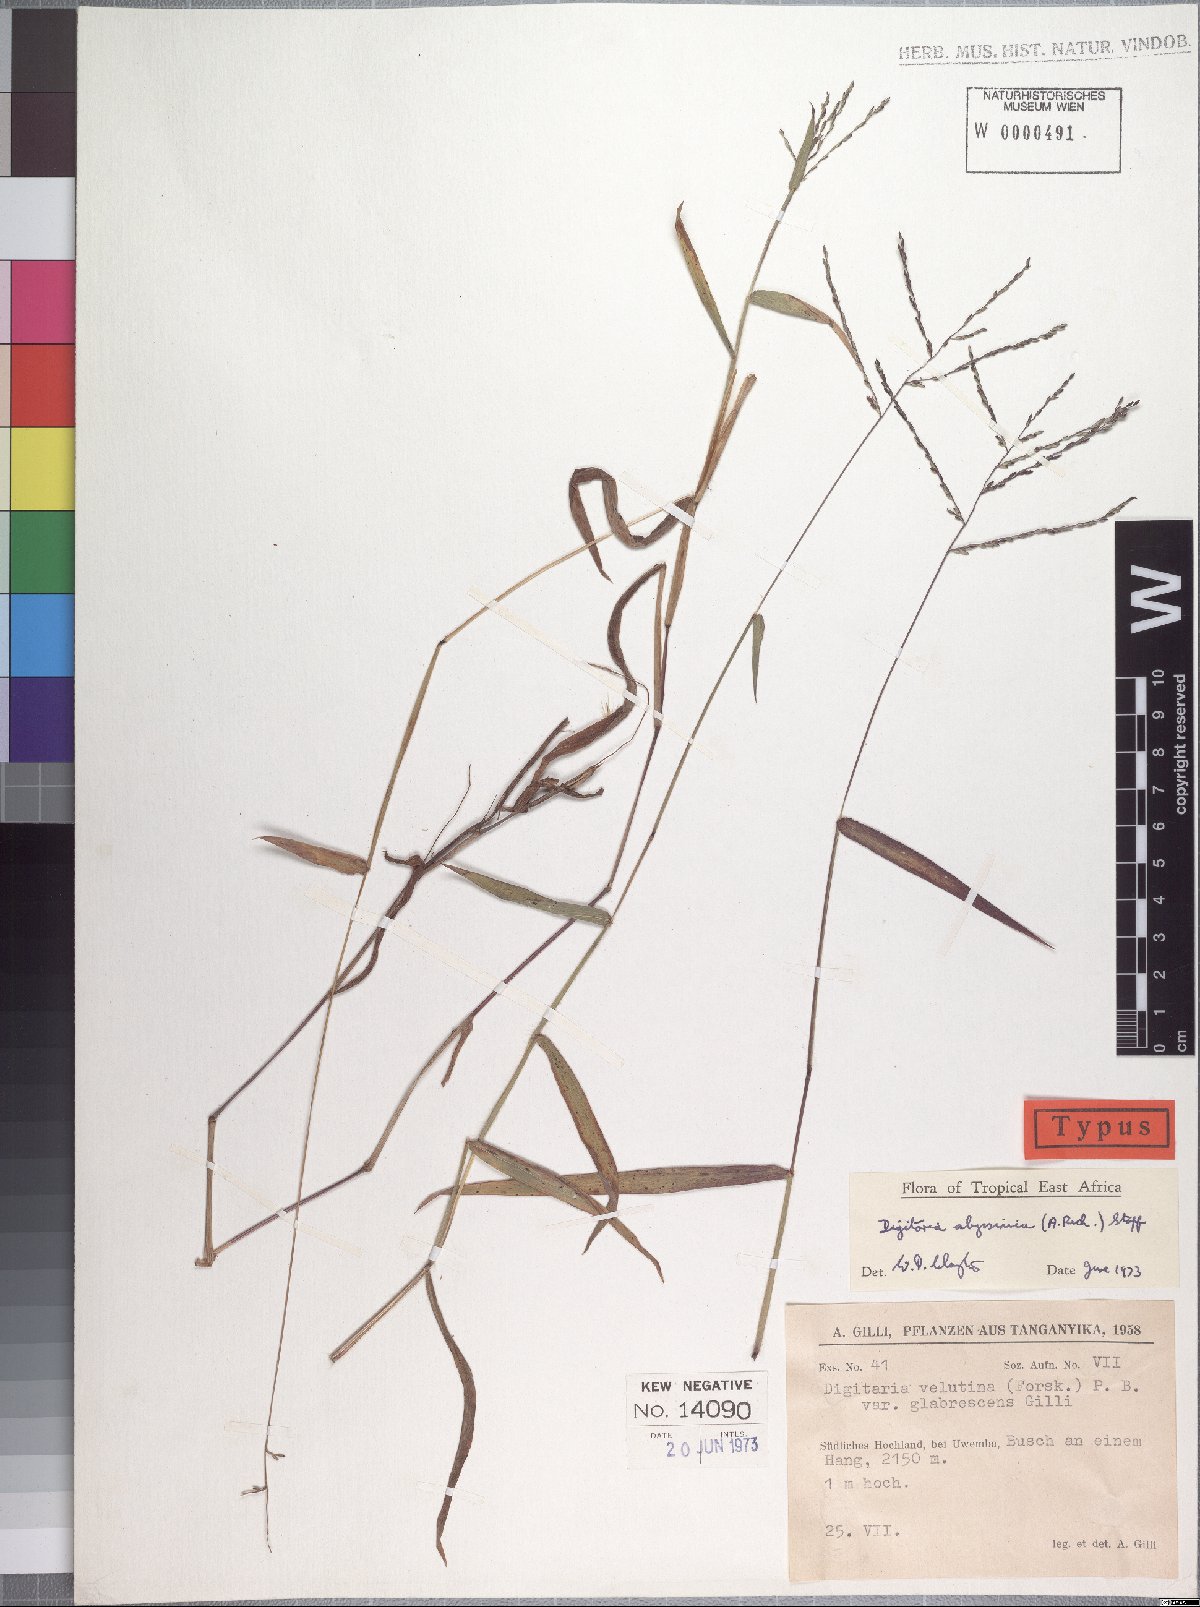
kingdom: Plantae
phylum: Tracheophyta
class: Liliopsida
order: Poales
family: Poaceae
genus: Digitaria
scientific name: Digitaria abyssinica
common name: African couchgrass
